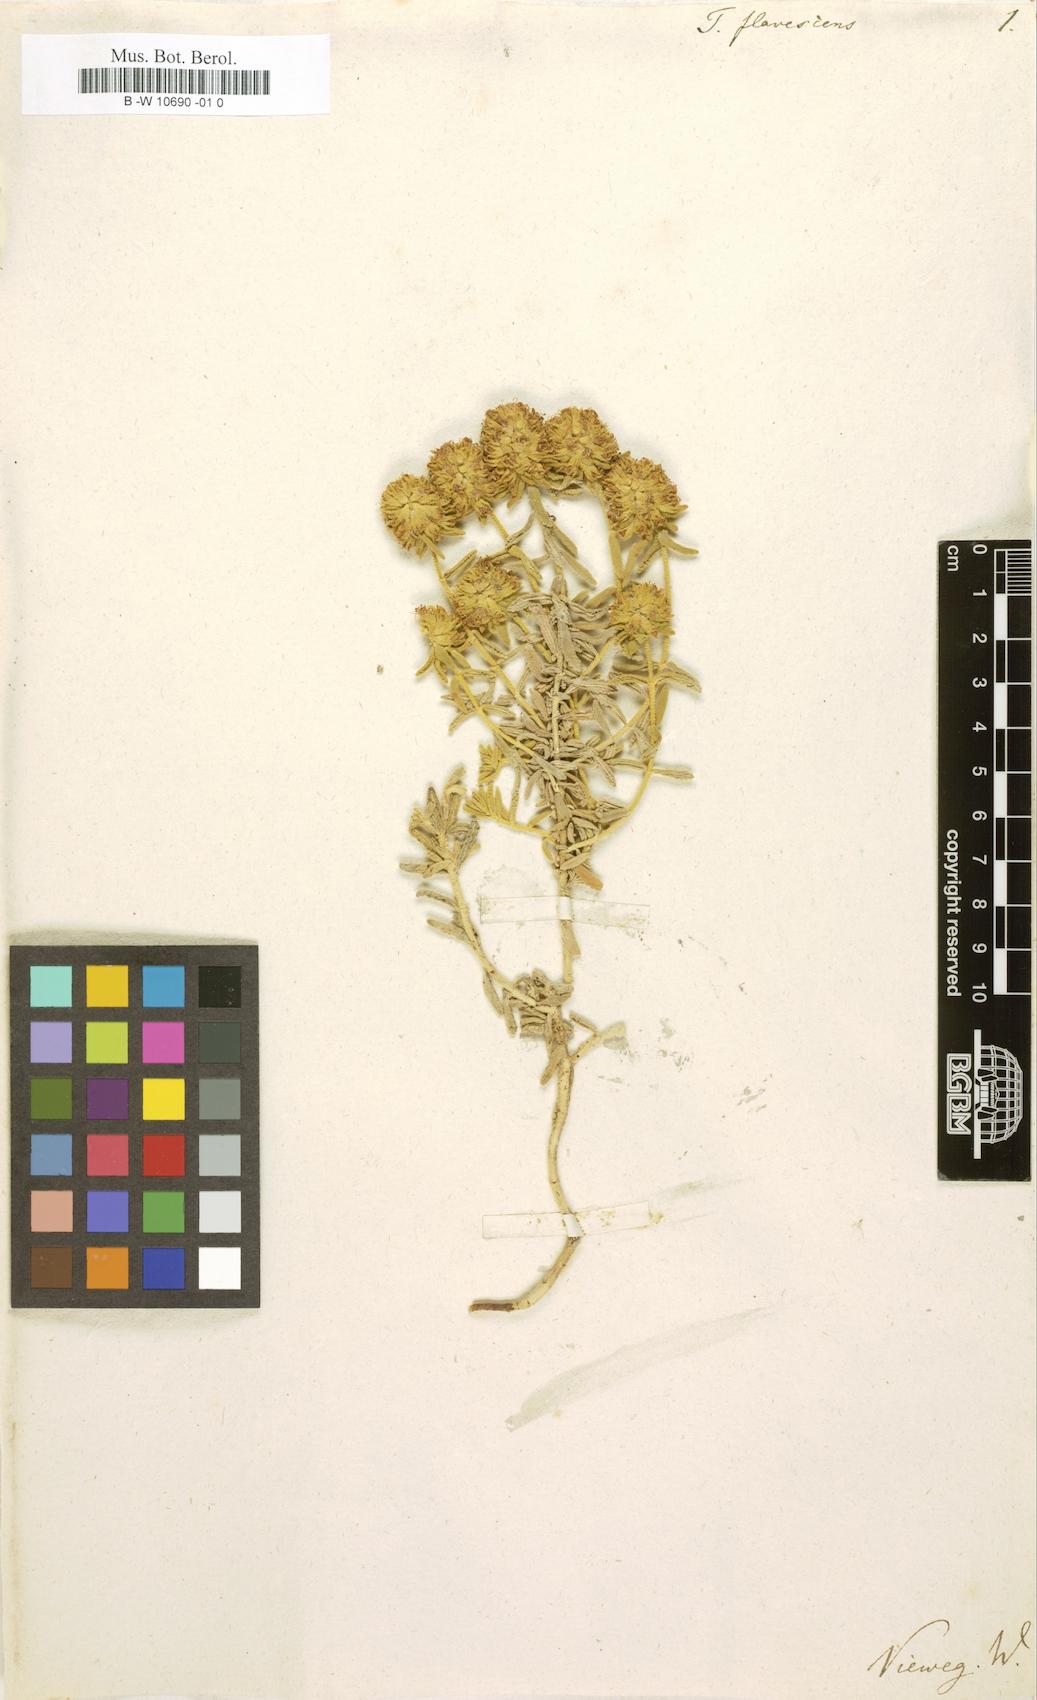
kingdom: Plantae
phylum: Tracheophyta
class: Magnoliopsida
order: Lamiales
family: Lamiaceae
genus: Teucrium
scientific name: Teucrium aureum
